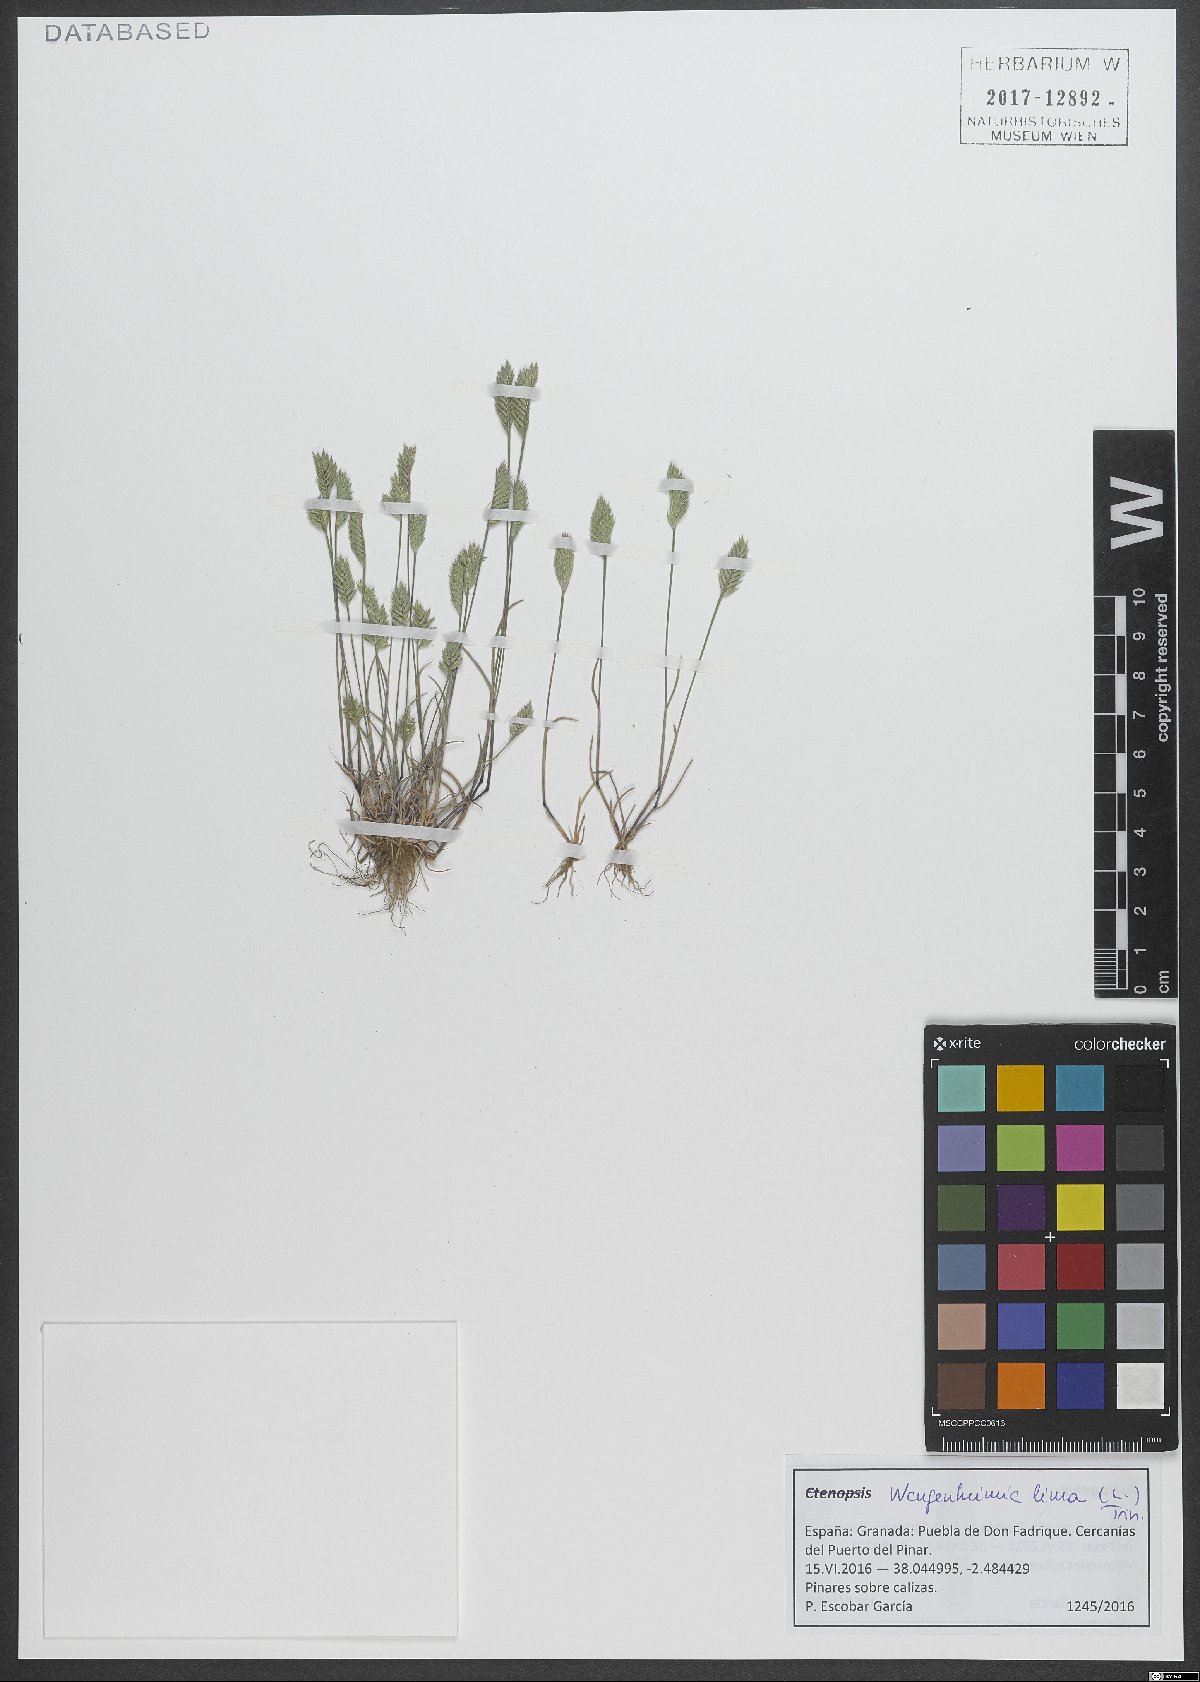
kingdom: Plantae
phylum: Tracheophyta
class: Liliopsida
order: Poales
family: Poaceae
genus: Wangenheimia
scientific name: Wangenheimia lima
